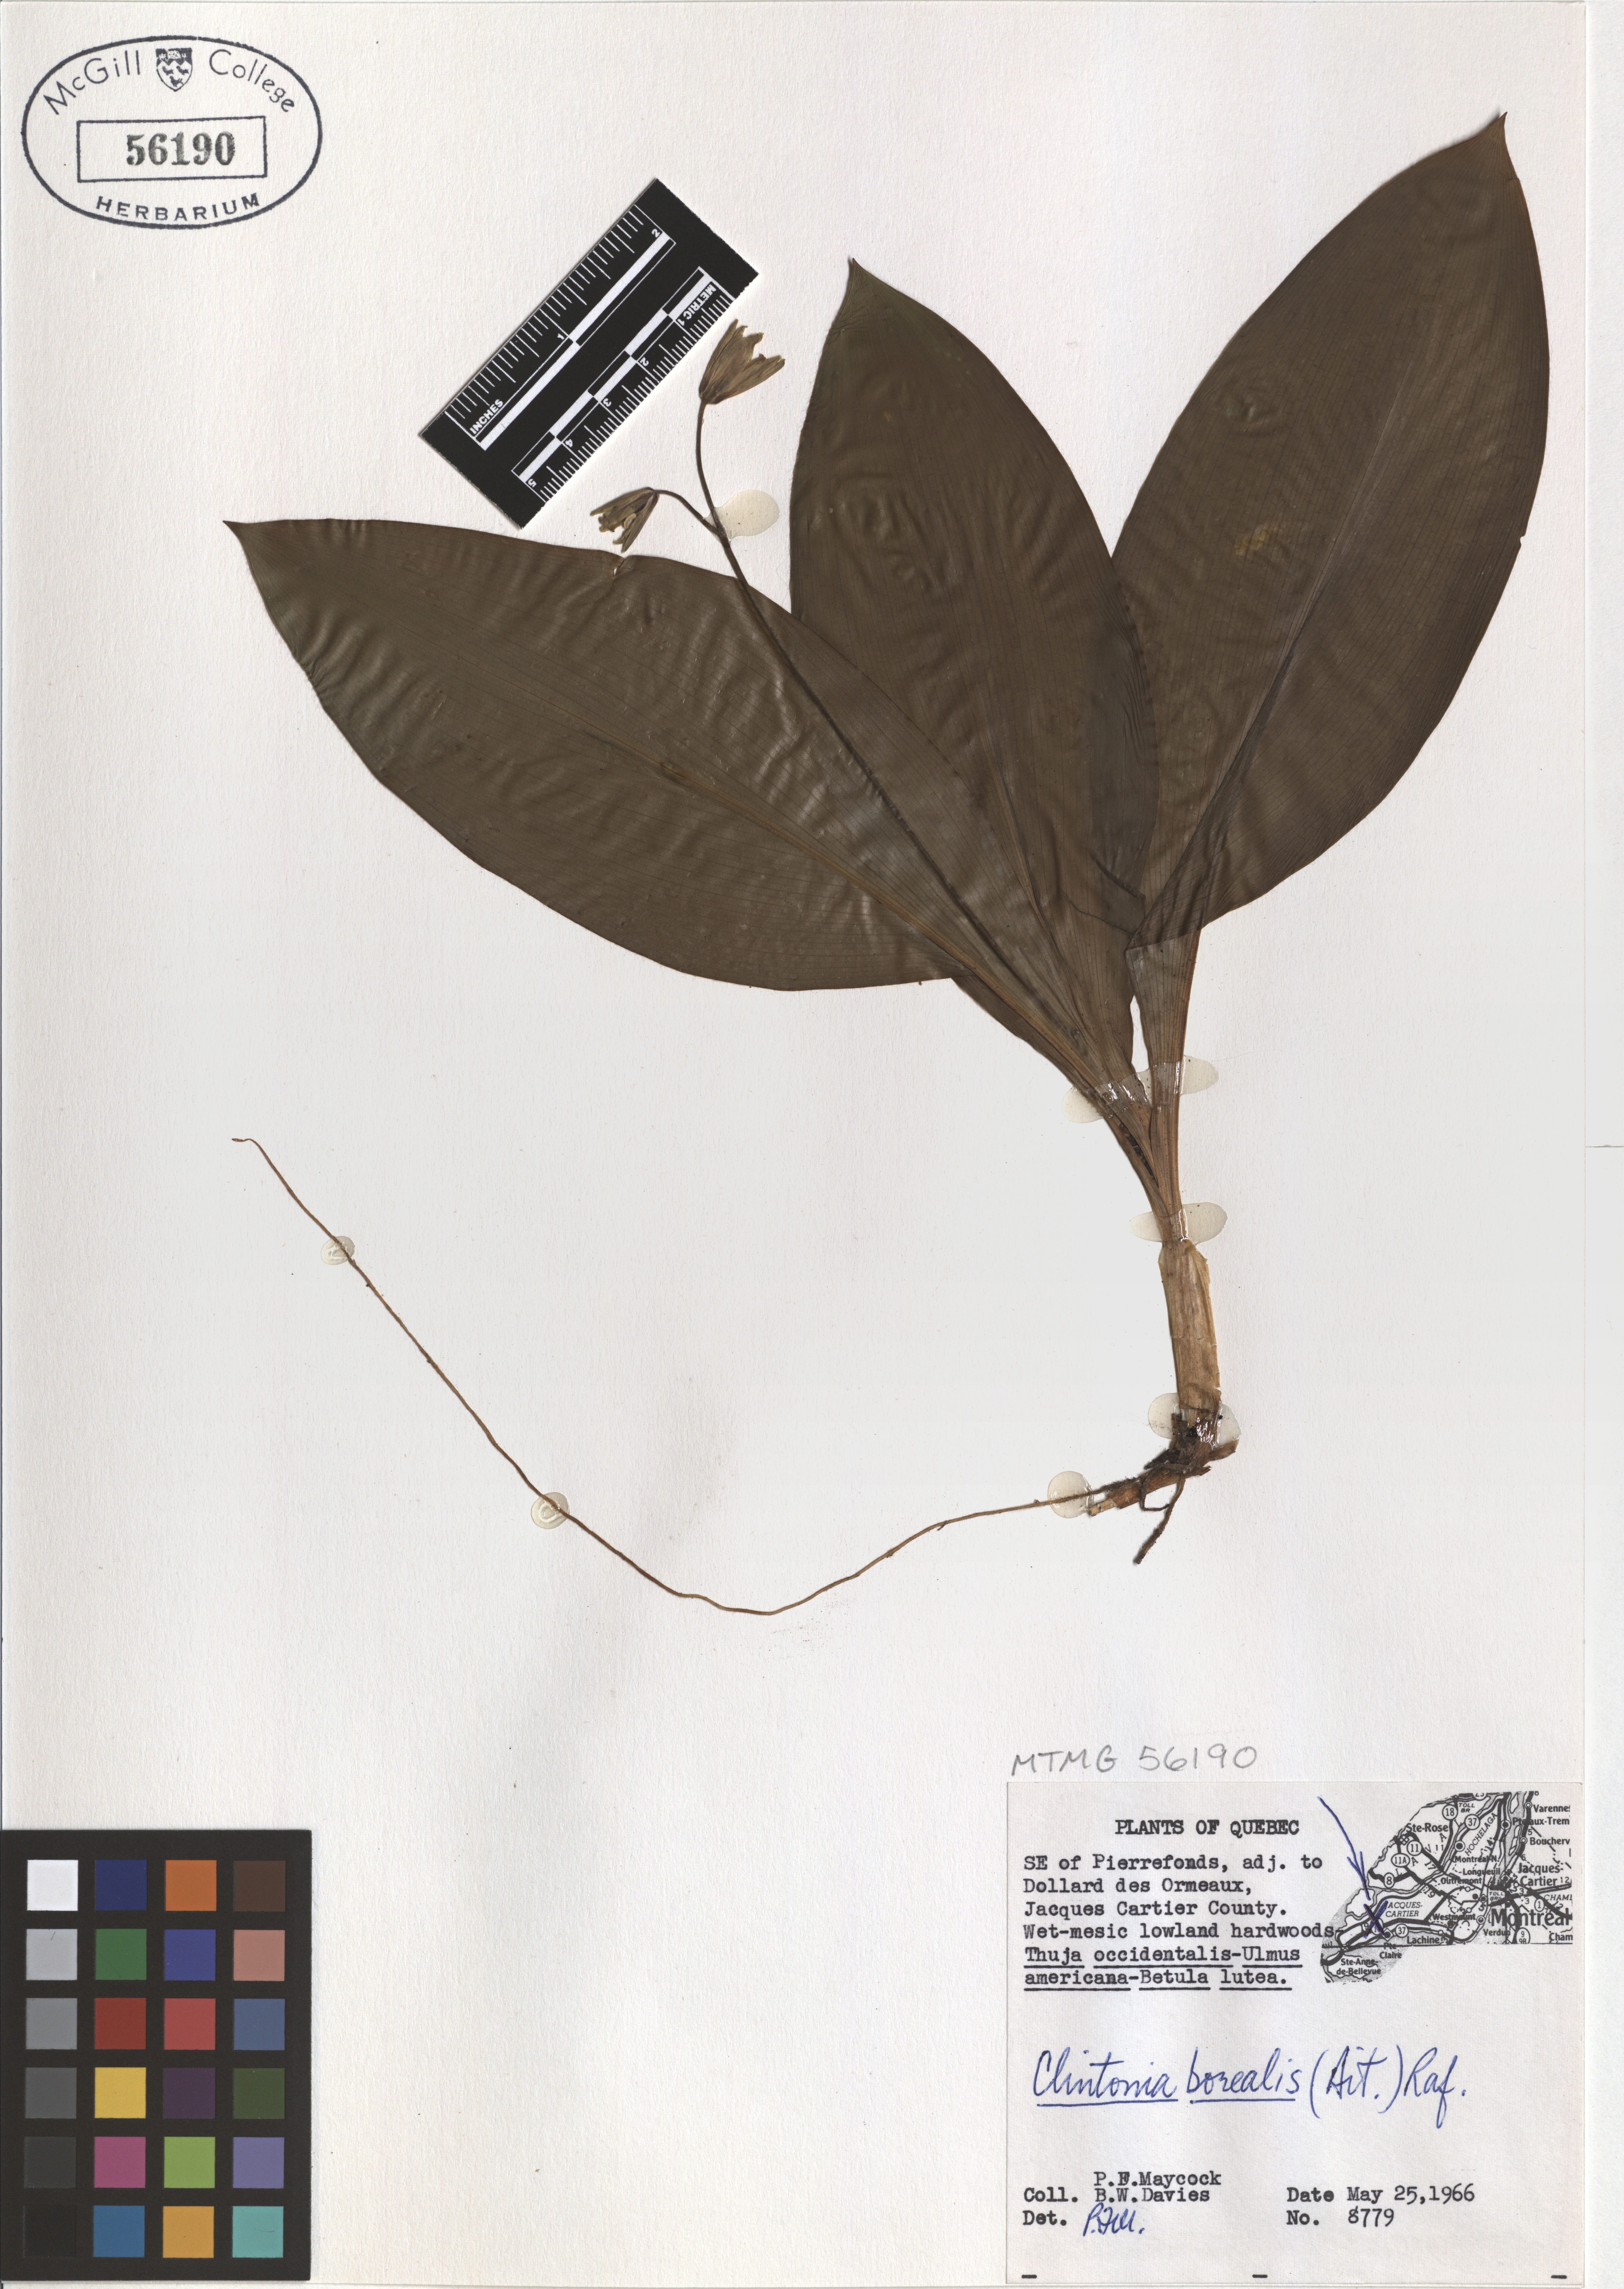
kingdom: Plantae
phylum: Tracheophyta
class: Liliopsida
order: Liliales
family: Liliaceae
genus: Clintonia
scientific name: Clintonia borealis
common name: Yellow clintonia
